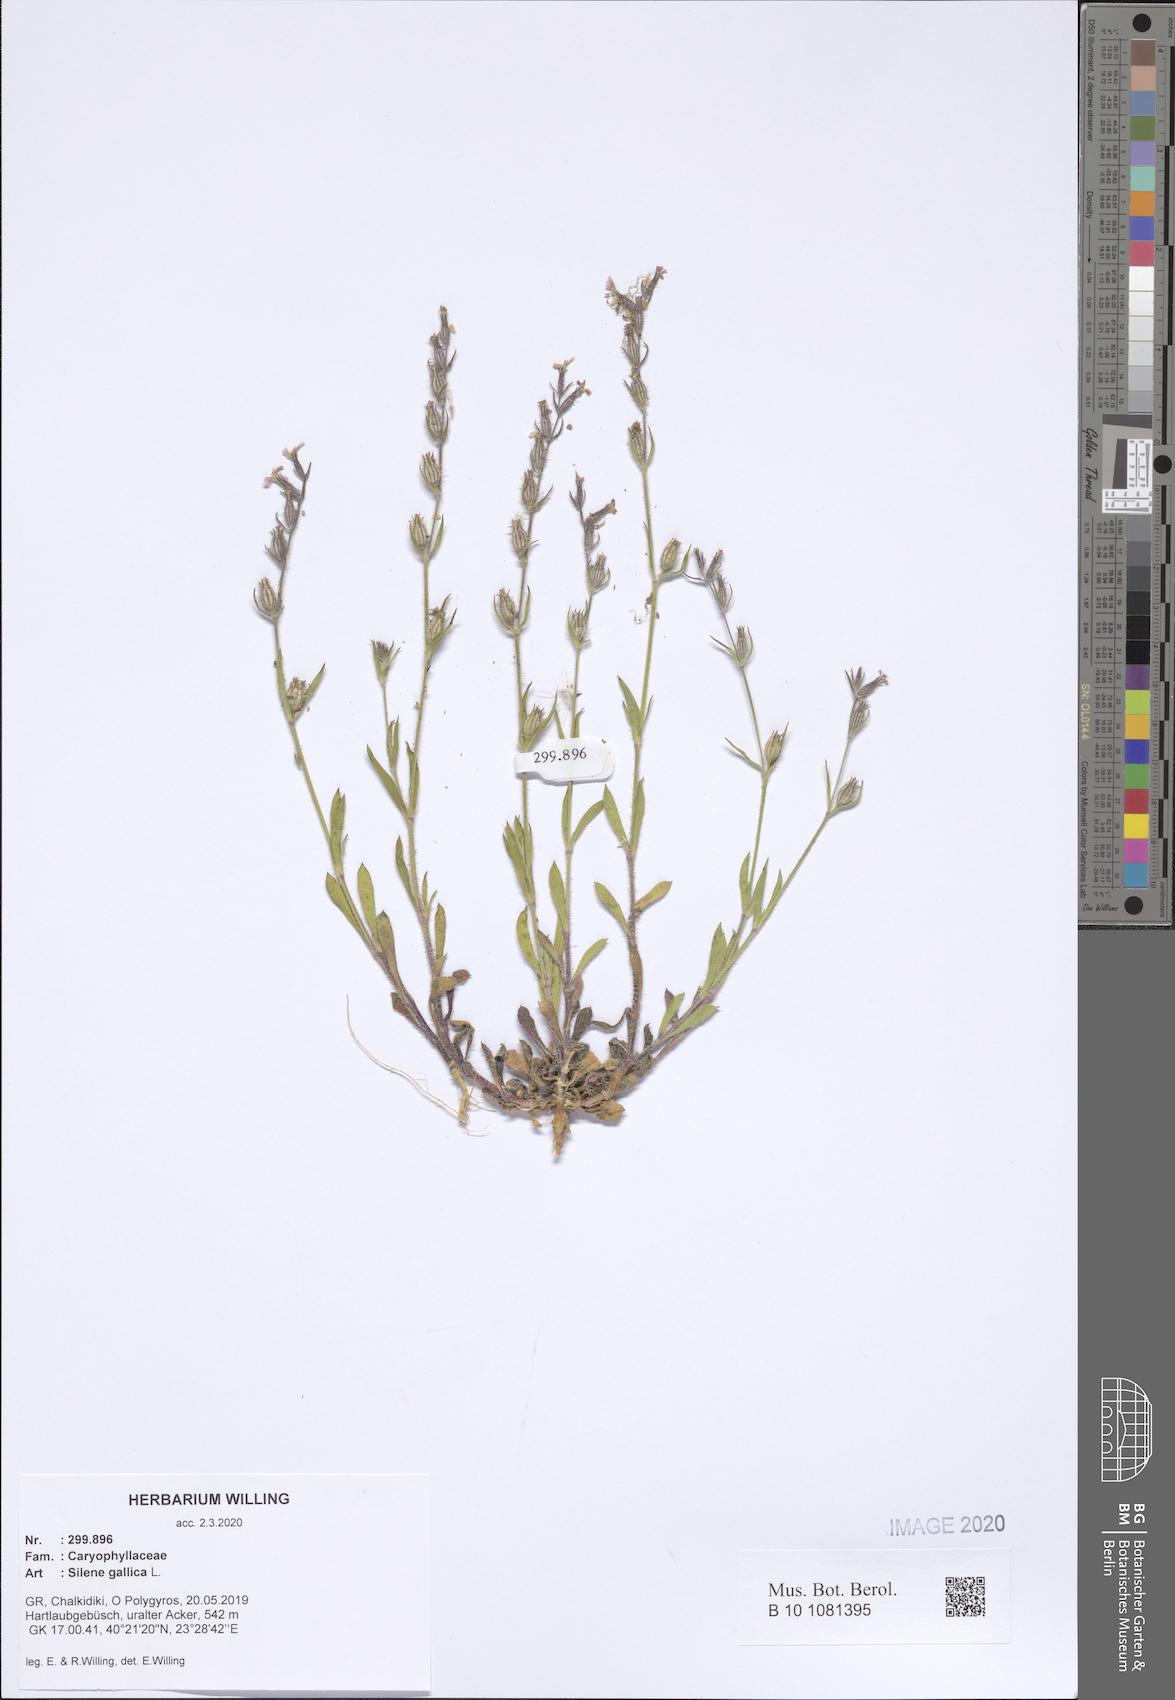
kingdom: Plantae
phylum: Tracheophyta
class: Magnoliopsida
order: Caryophyllales
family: Caryophyllaceae
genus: Silene
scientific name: Silene gallica
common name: Small-flowered catchfly
